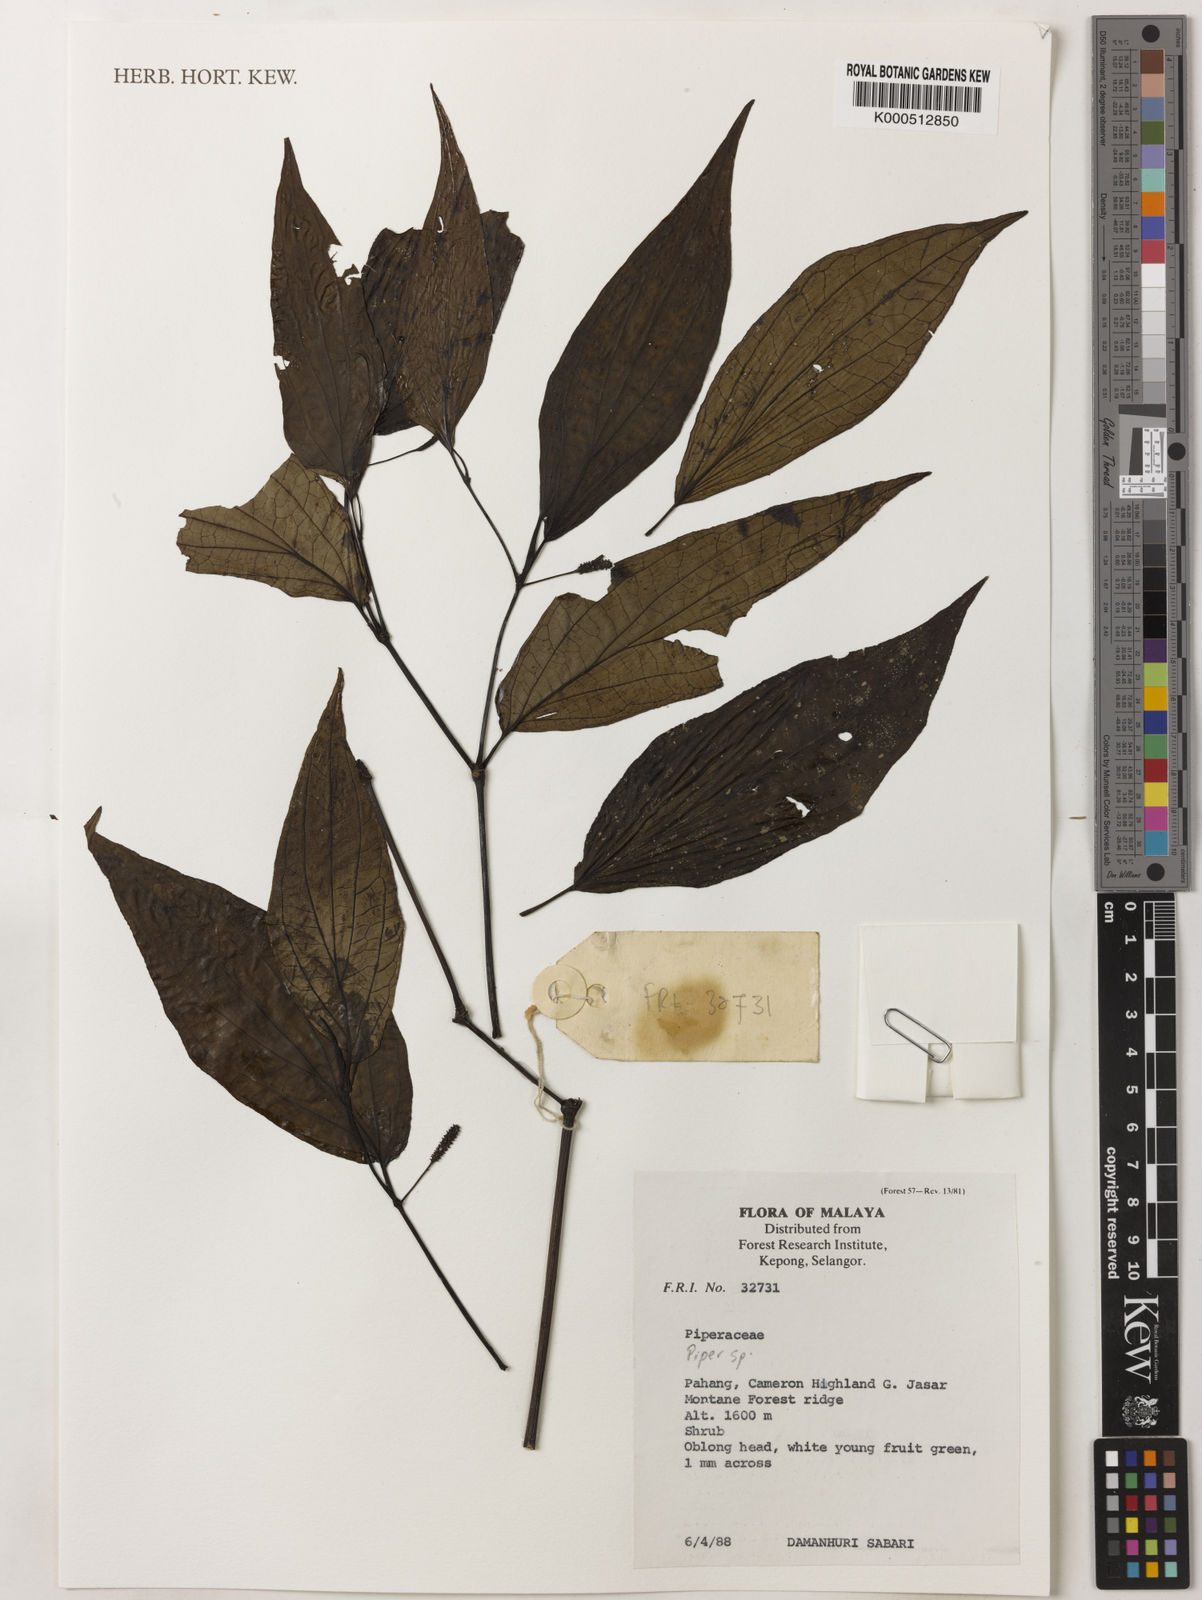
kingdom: Plantae
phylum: Tracheophyta
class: Magnoliopsida
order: Piperales
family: Piperaceae
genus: Piper
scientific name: Piper
